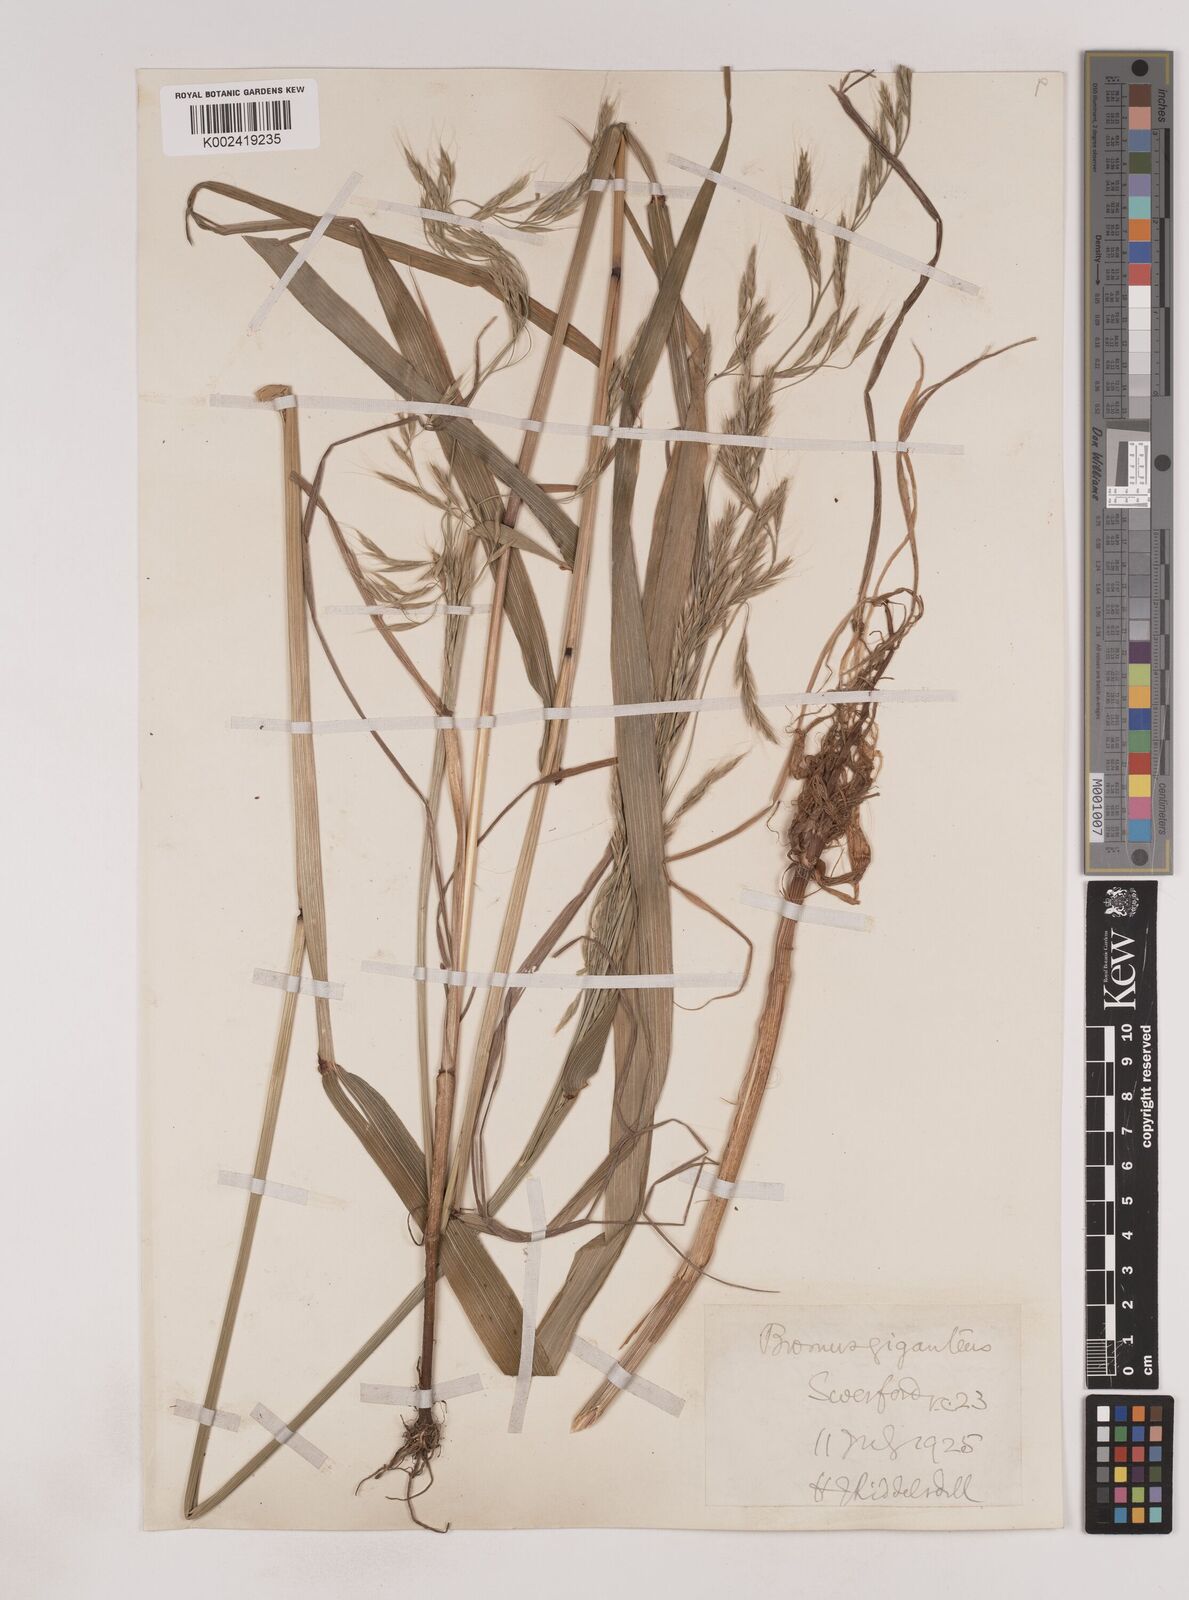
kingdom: Plantae
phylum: Tracheophyta
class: Liliopsida
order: Poales
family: Poaceae
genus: Lolium
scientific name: Lolium giganteum
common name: Giant fescue
